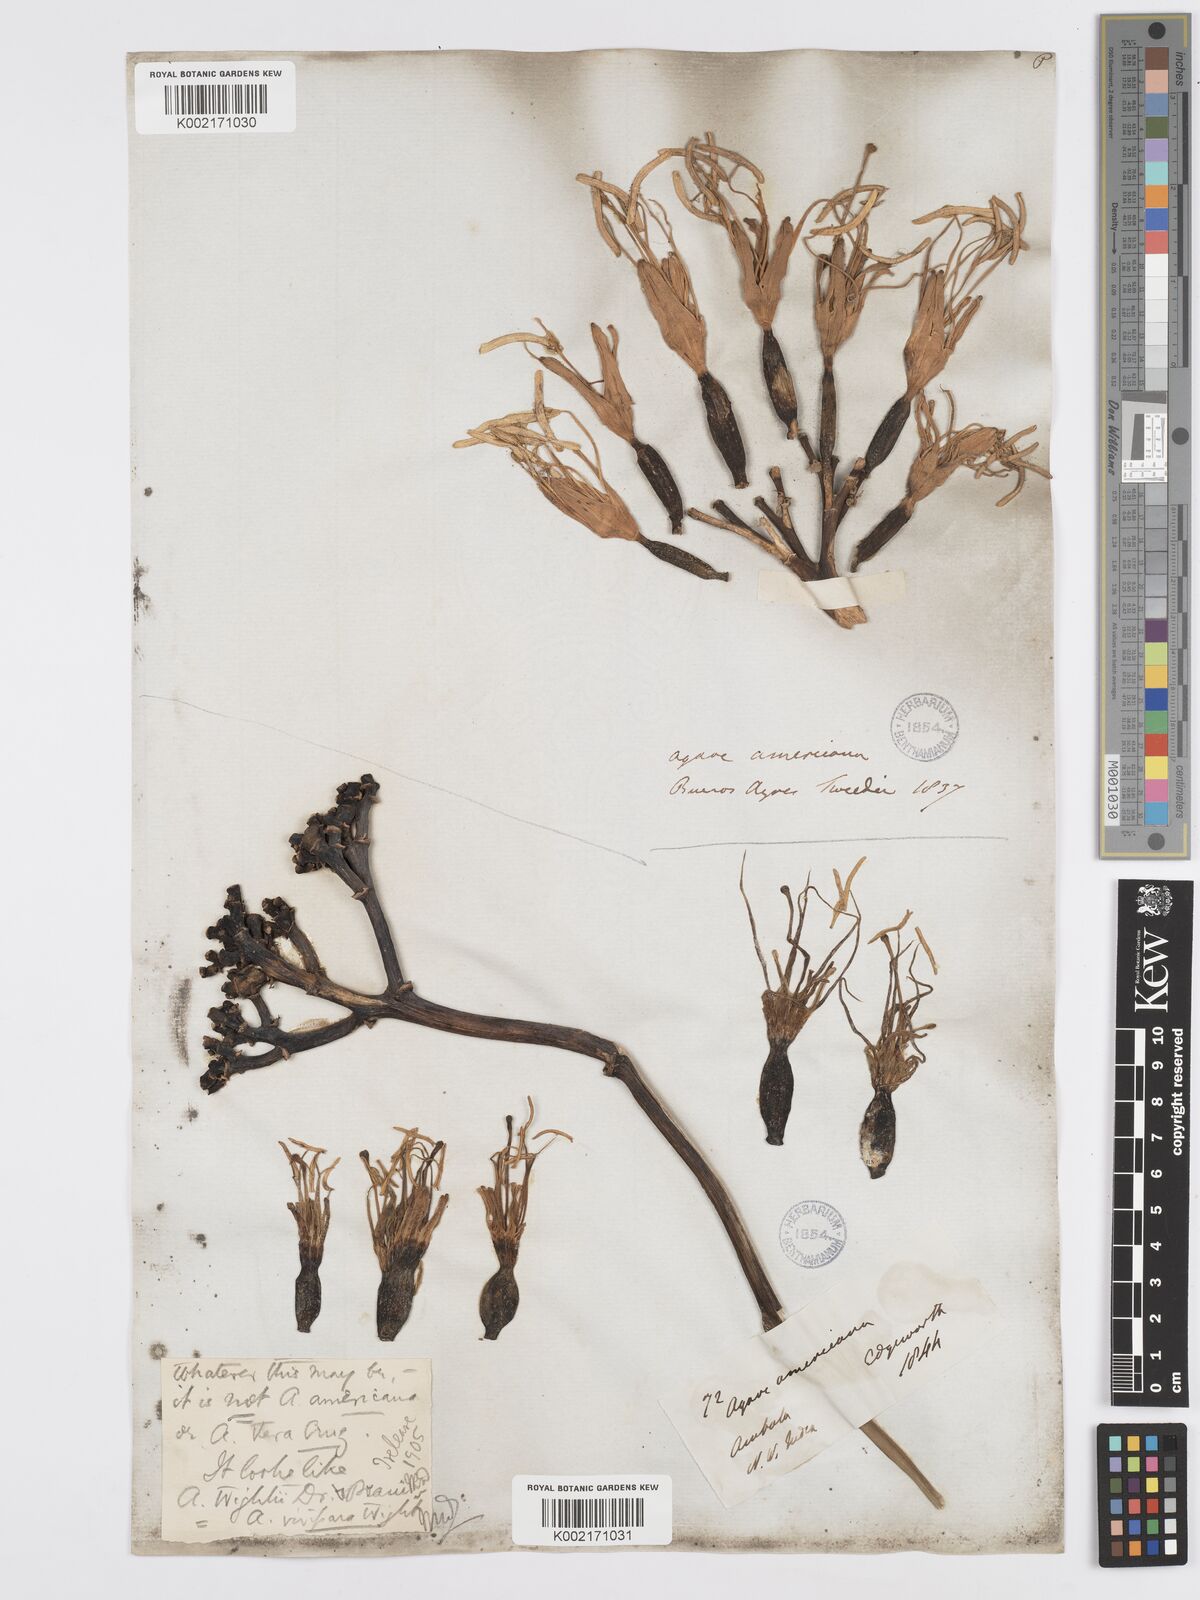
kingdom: Plantae
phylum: Tracheophyta
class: Liliopsida
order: Asparagales
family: Asparagaceae
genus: Agave
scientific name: Agave americana
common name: Centuryplant
